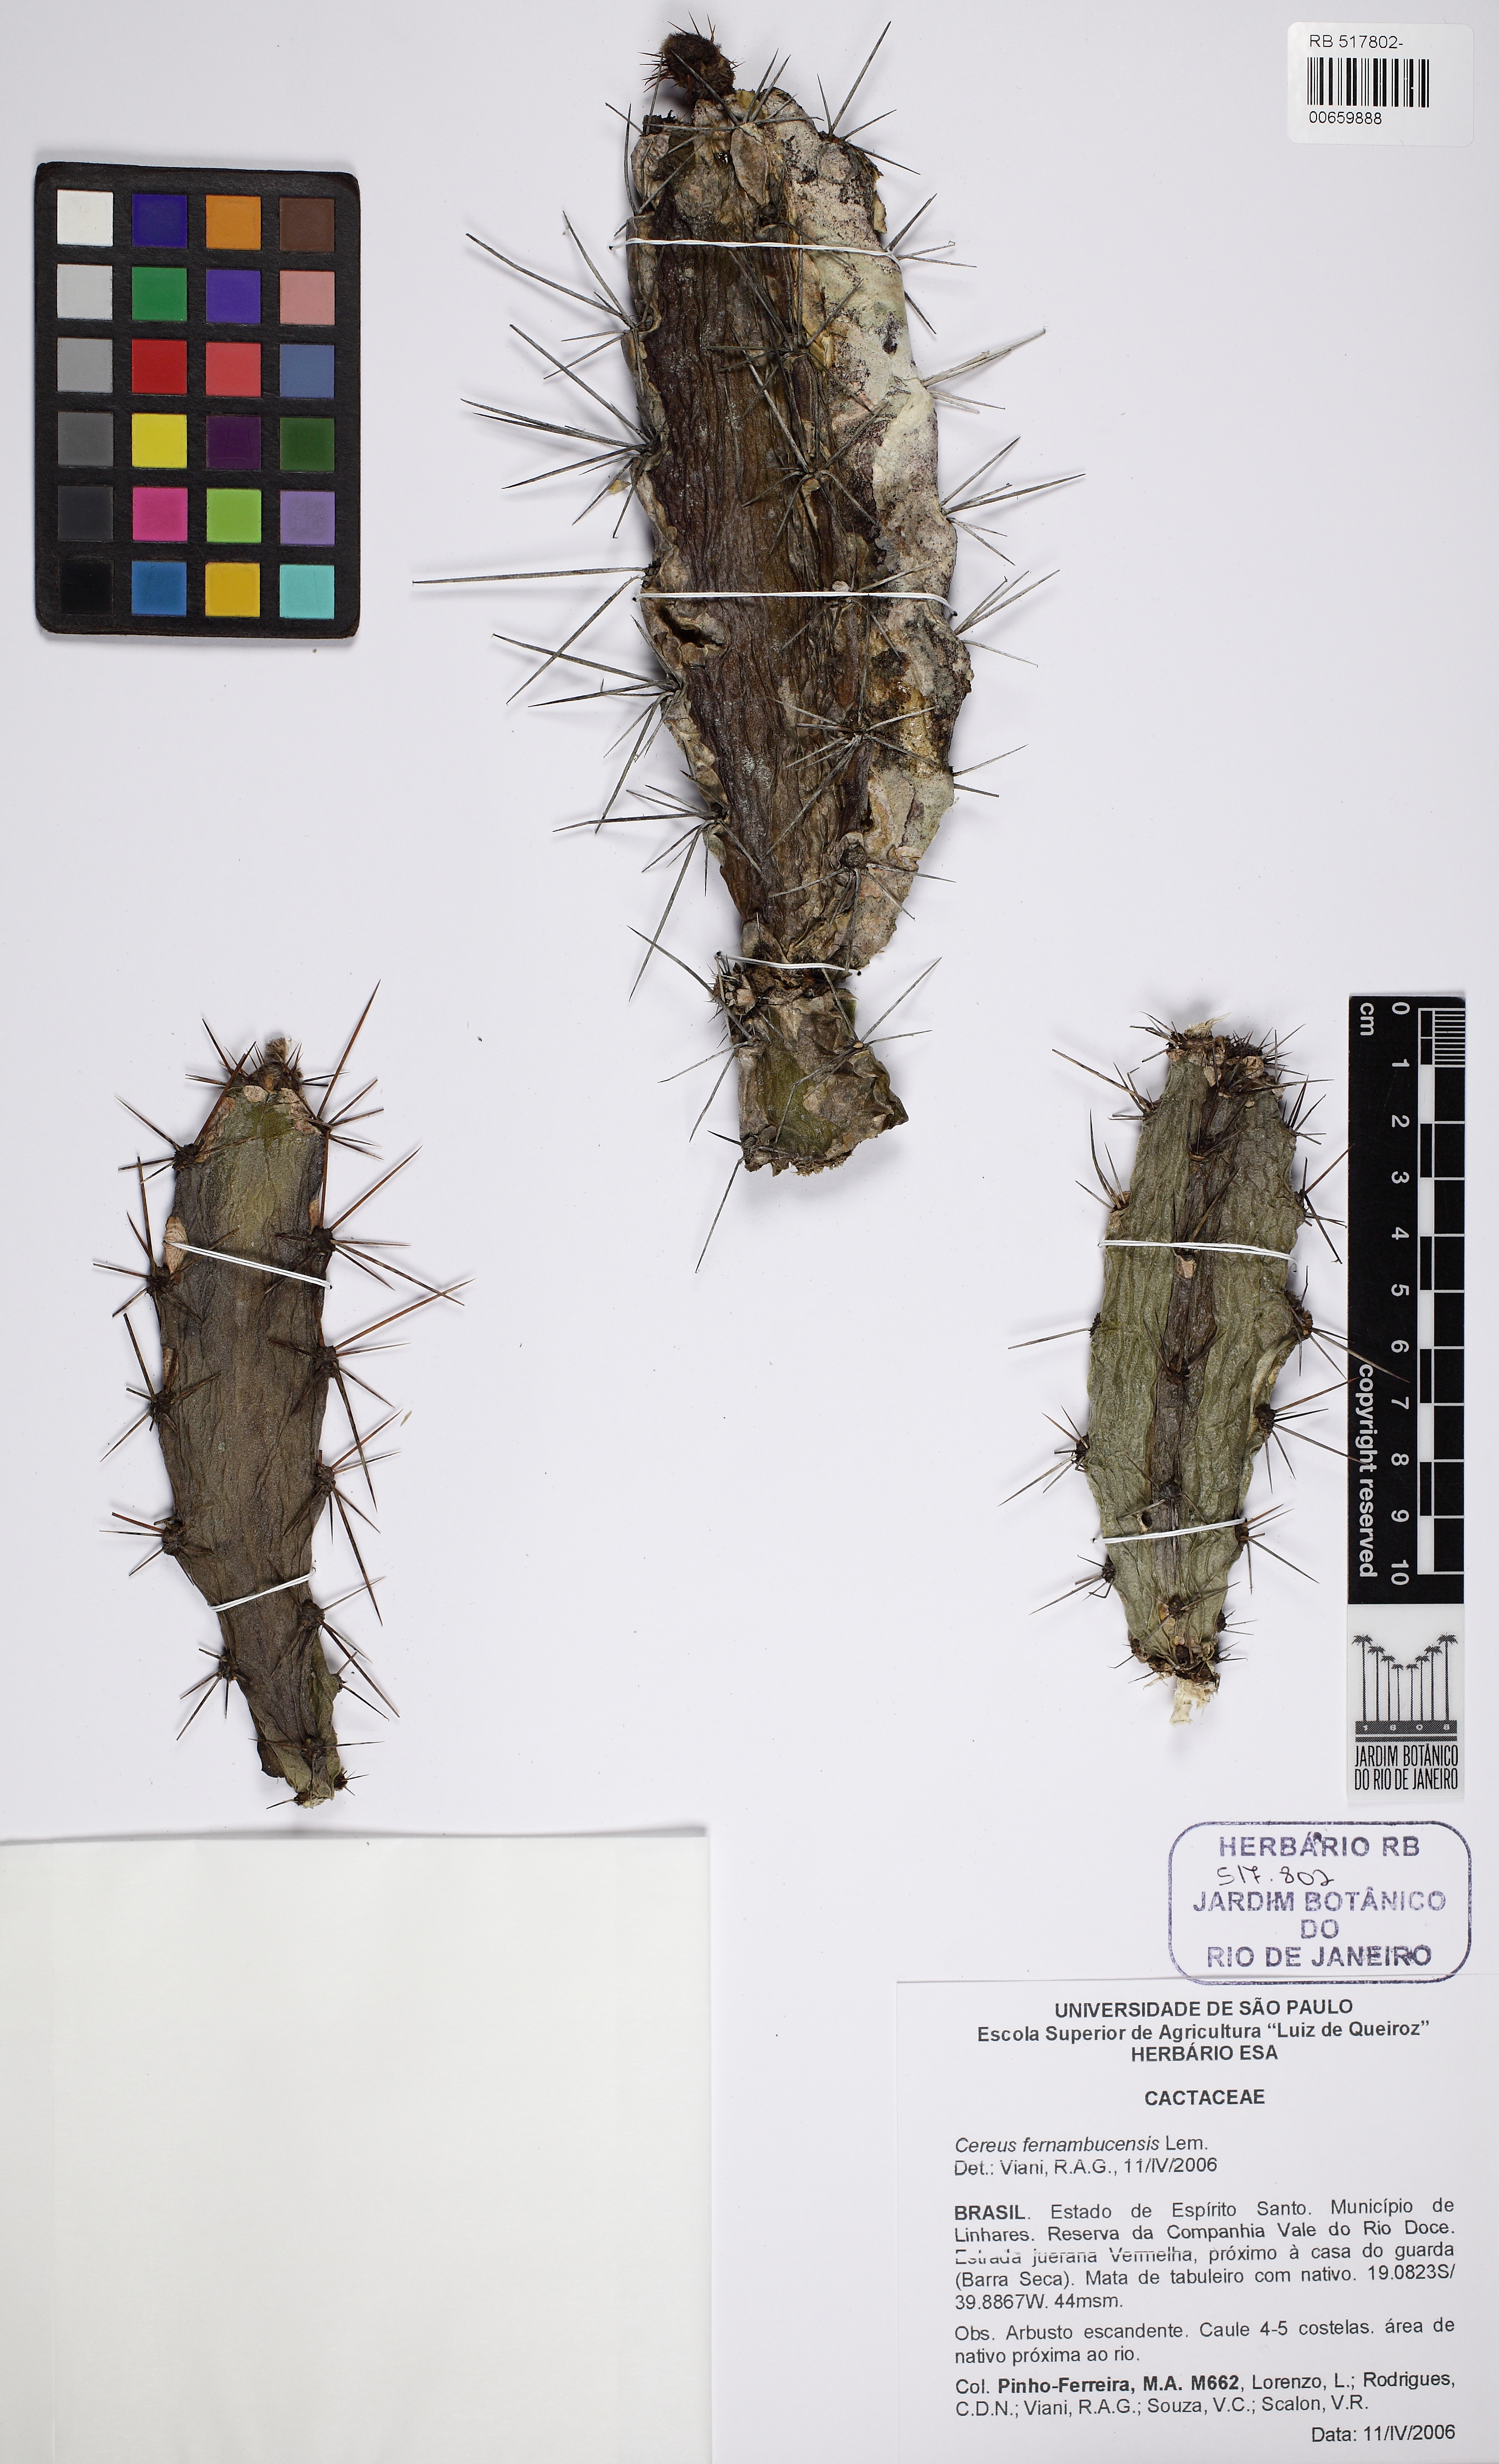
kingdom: Plantae
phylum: Tracheophyta
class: Magnoliopsida
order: Caryophyllales
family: Cactaceae
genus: Cereus
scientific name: Cereus fernambucensis
